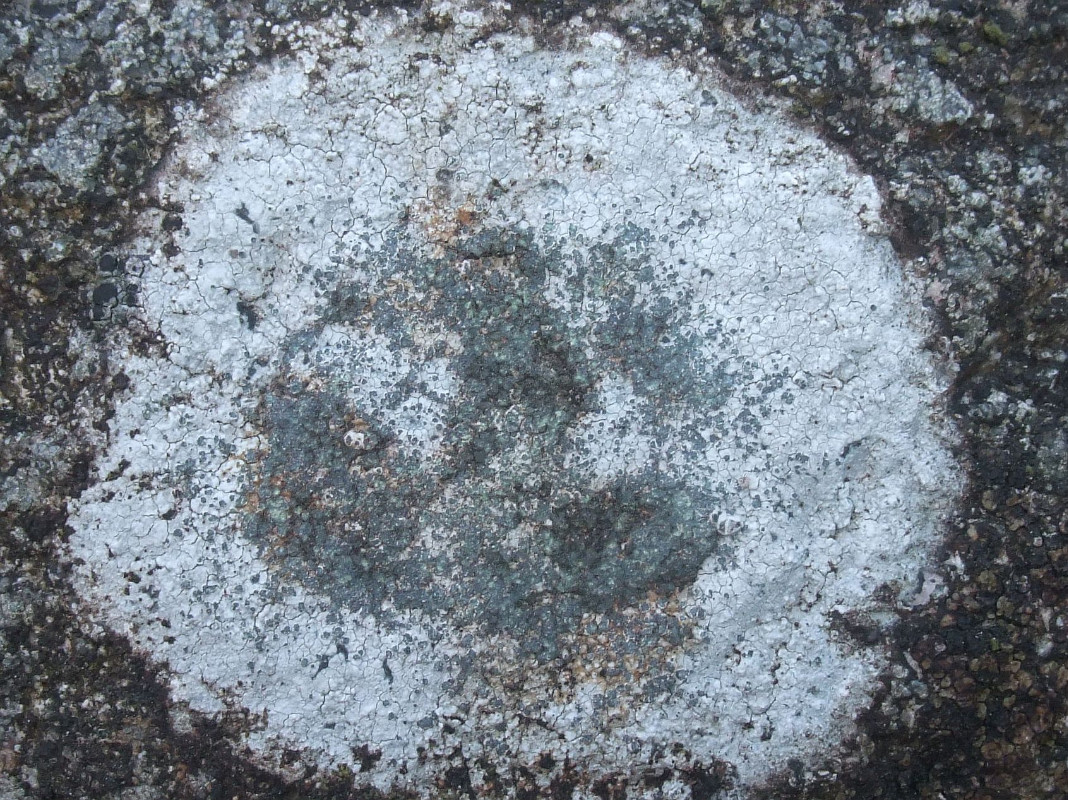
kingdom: Fungi
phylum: Ascomycota
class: Lecanoromycetes
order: Lecideales
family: Lecideaceae
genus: Porpidia
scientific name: Porpidia soredizodes
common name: sortkornet bredskivelav
